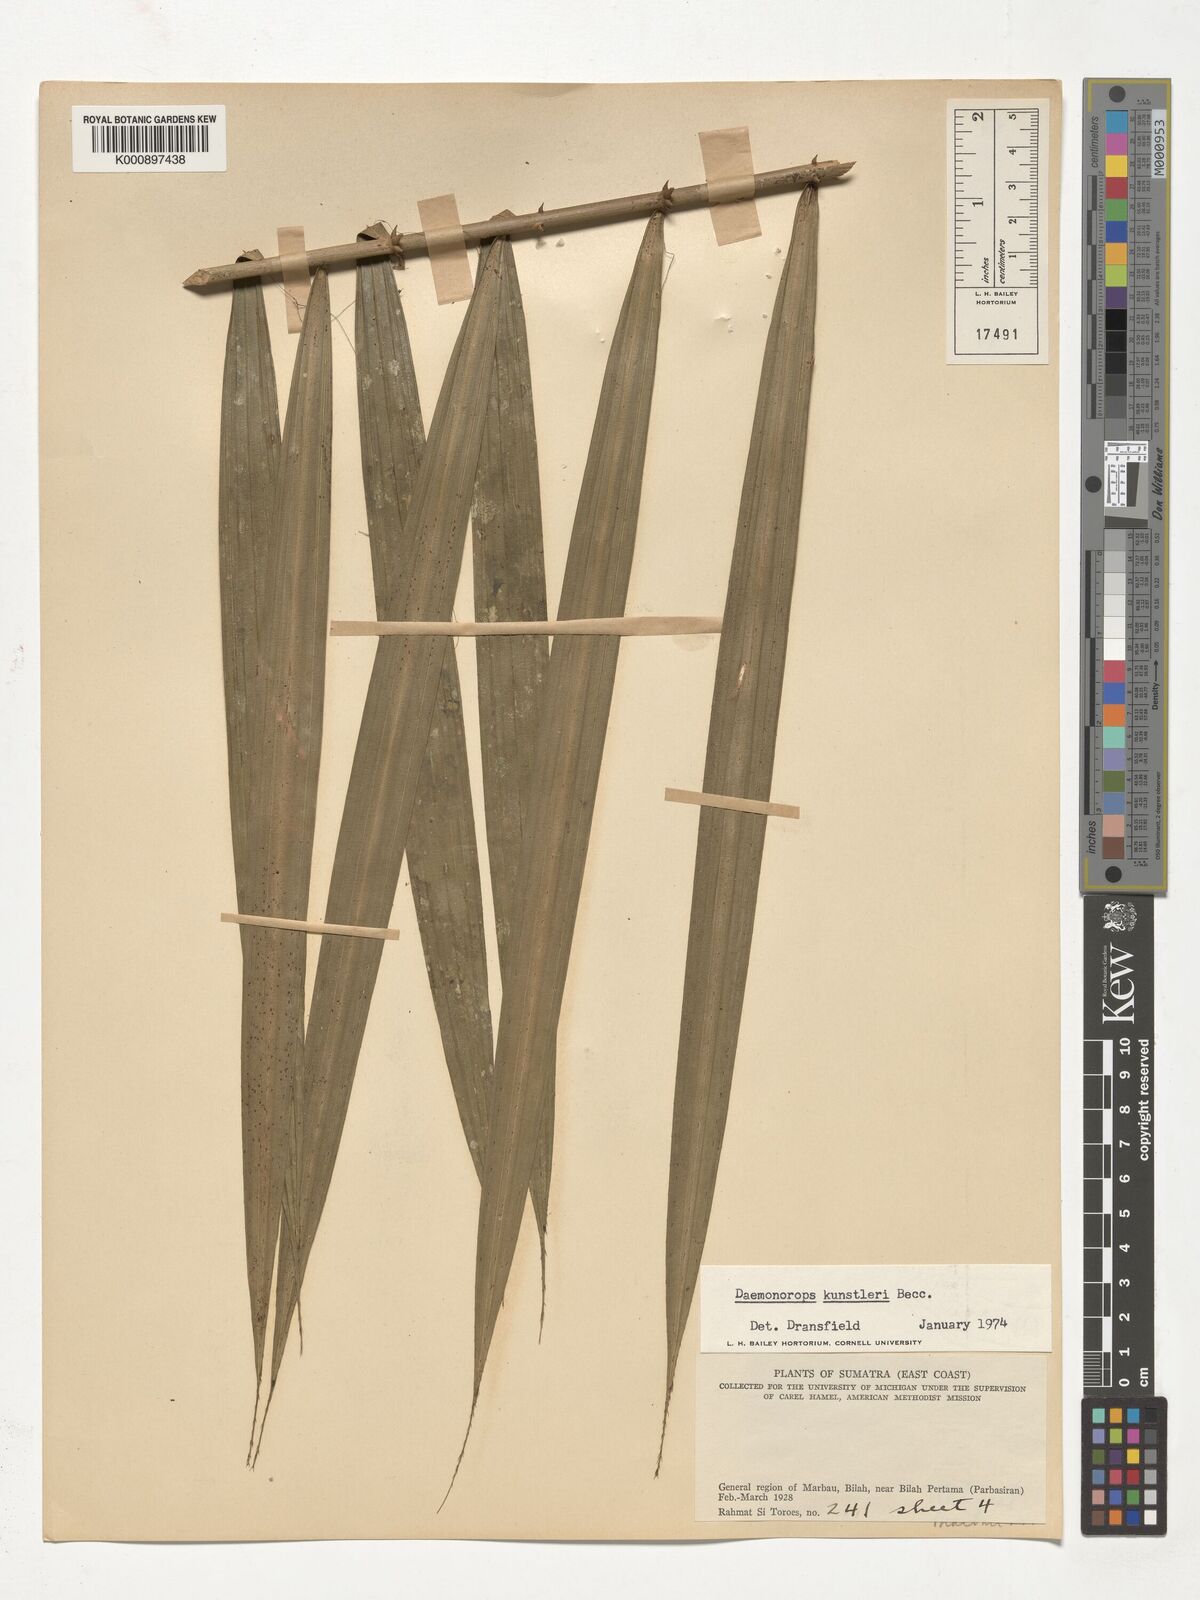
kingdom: Plantae
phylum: Tracheophyta
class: Liliopsida
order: Arecales
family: Arecaceae
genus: Calamus
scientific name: Calamus kunstleri
